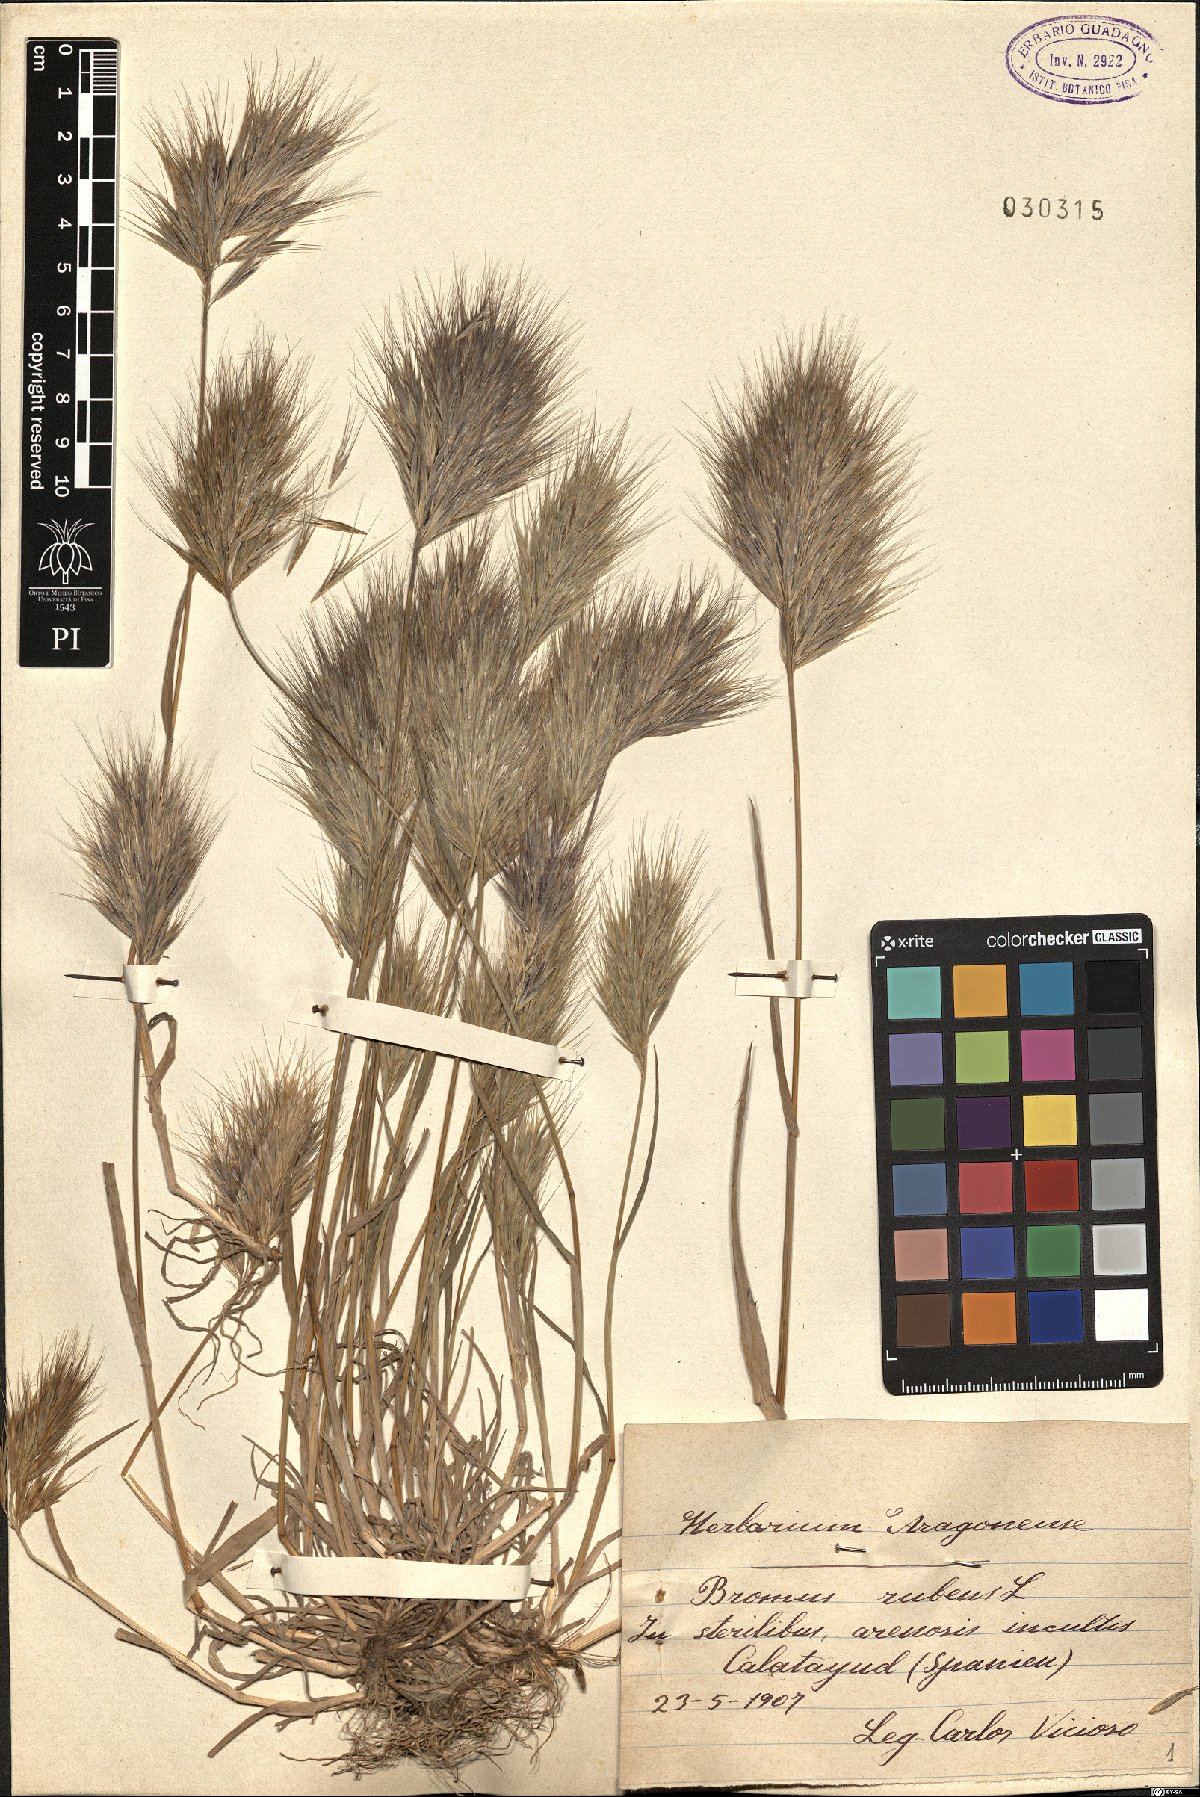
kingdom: Plantae
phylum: Tracheophyta
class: Liliopsida
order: Poales
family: Poaceae
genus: Bromus
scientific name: Bromus rubens
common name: Red brome
